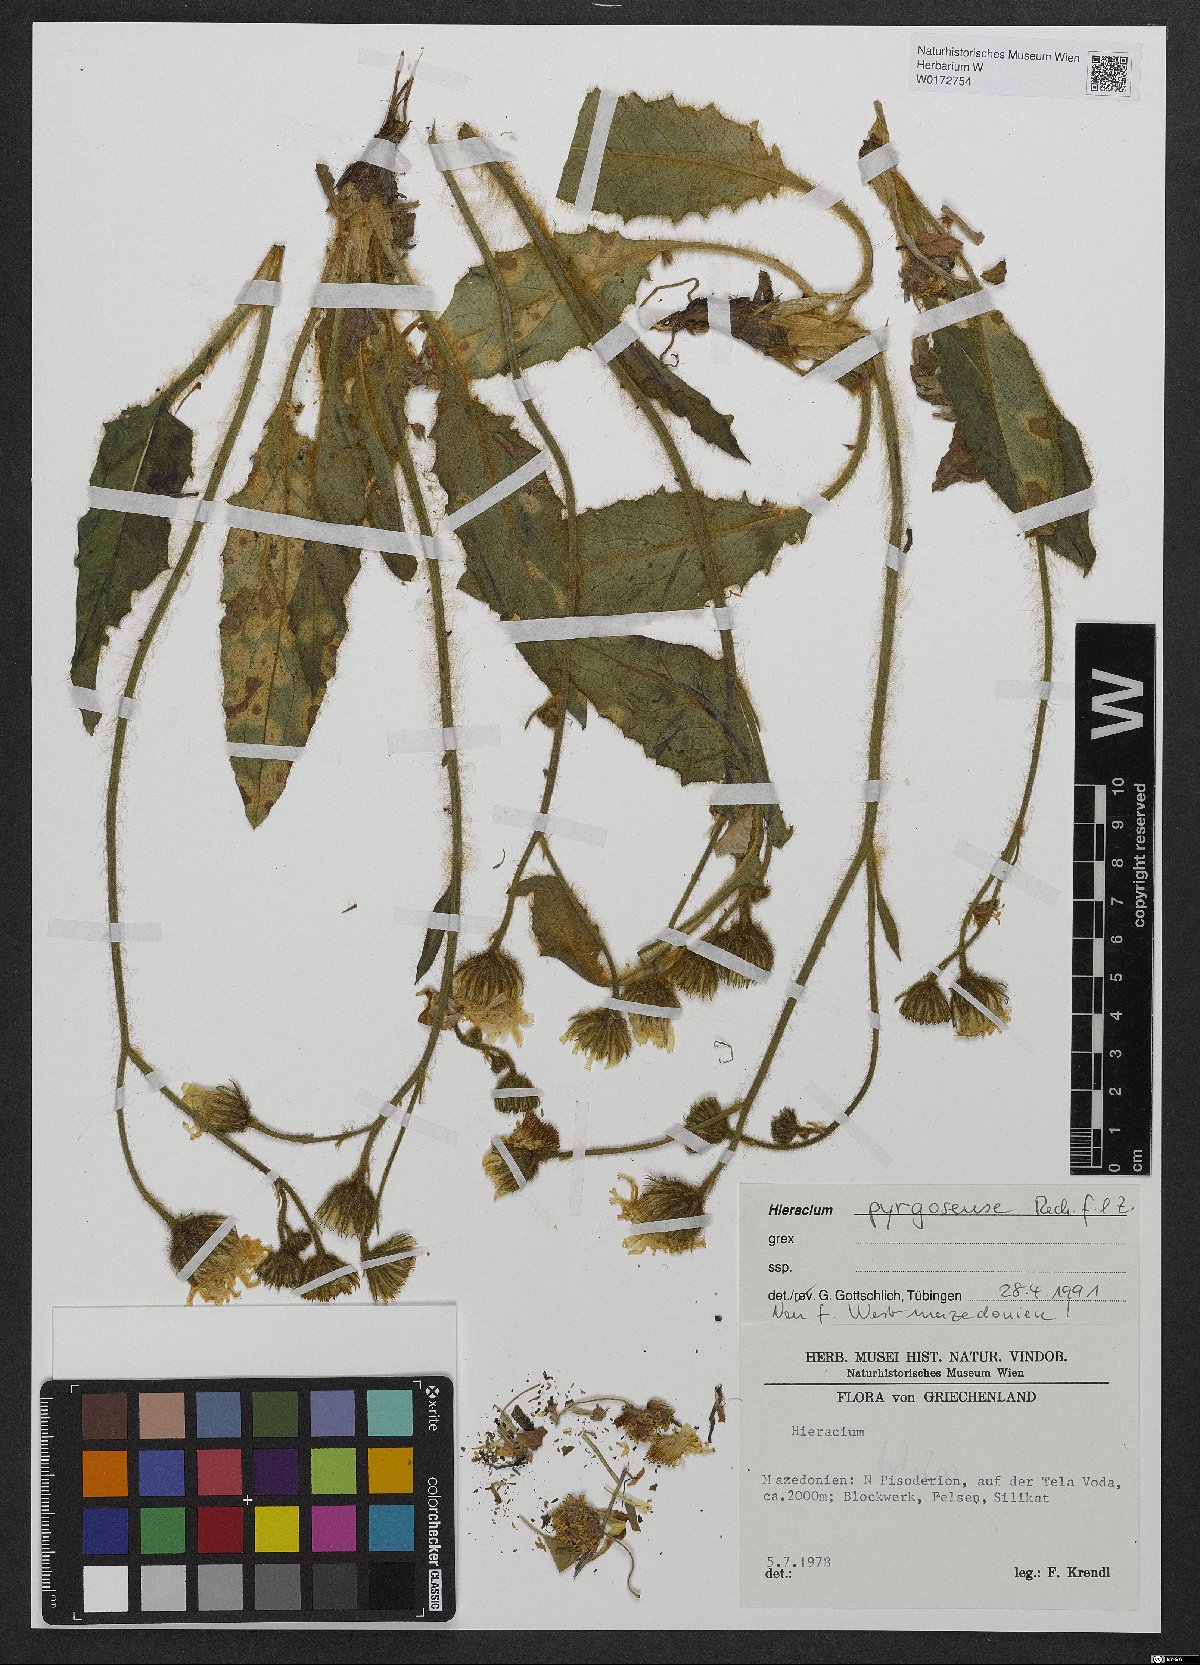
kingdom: Plantae
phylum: Tracheophyta
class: Magnoliopsida
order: Asterales
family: Asteraceae
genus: Hieracium
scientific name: Hieracium pyrgosense
